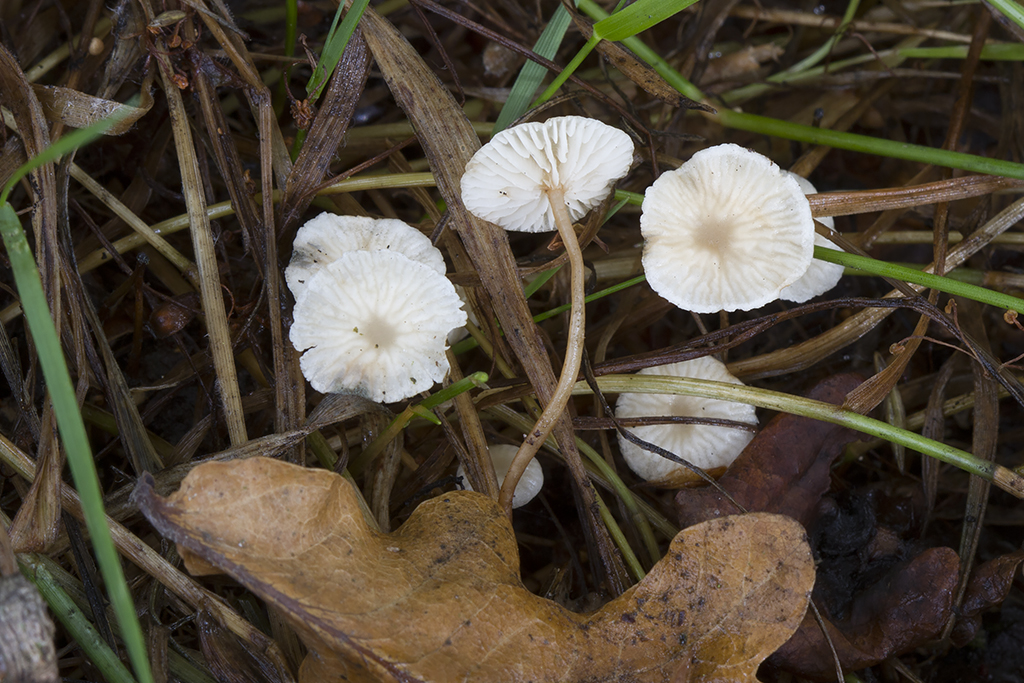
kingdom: Fungi
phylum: Basidiomycota
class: Agaricomycetes
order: Agaricales
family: Omphalotaceae
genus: Collybiopsis
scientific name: Collybiopsis vaillantii
